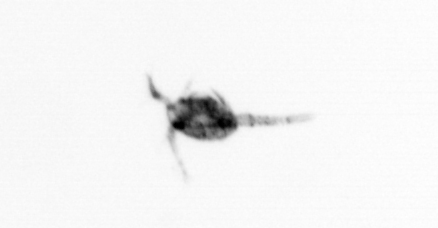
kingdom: Animalia
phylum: Arthropoda
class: Copepoda
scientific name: Copepoda
